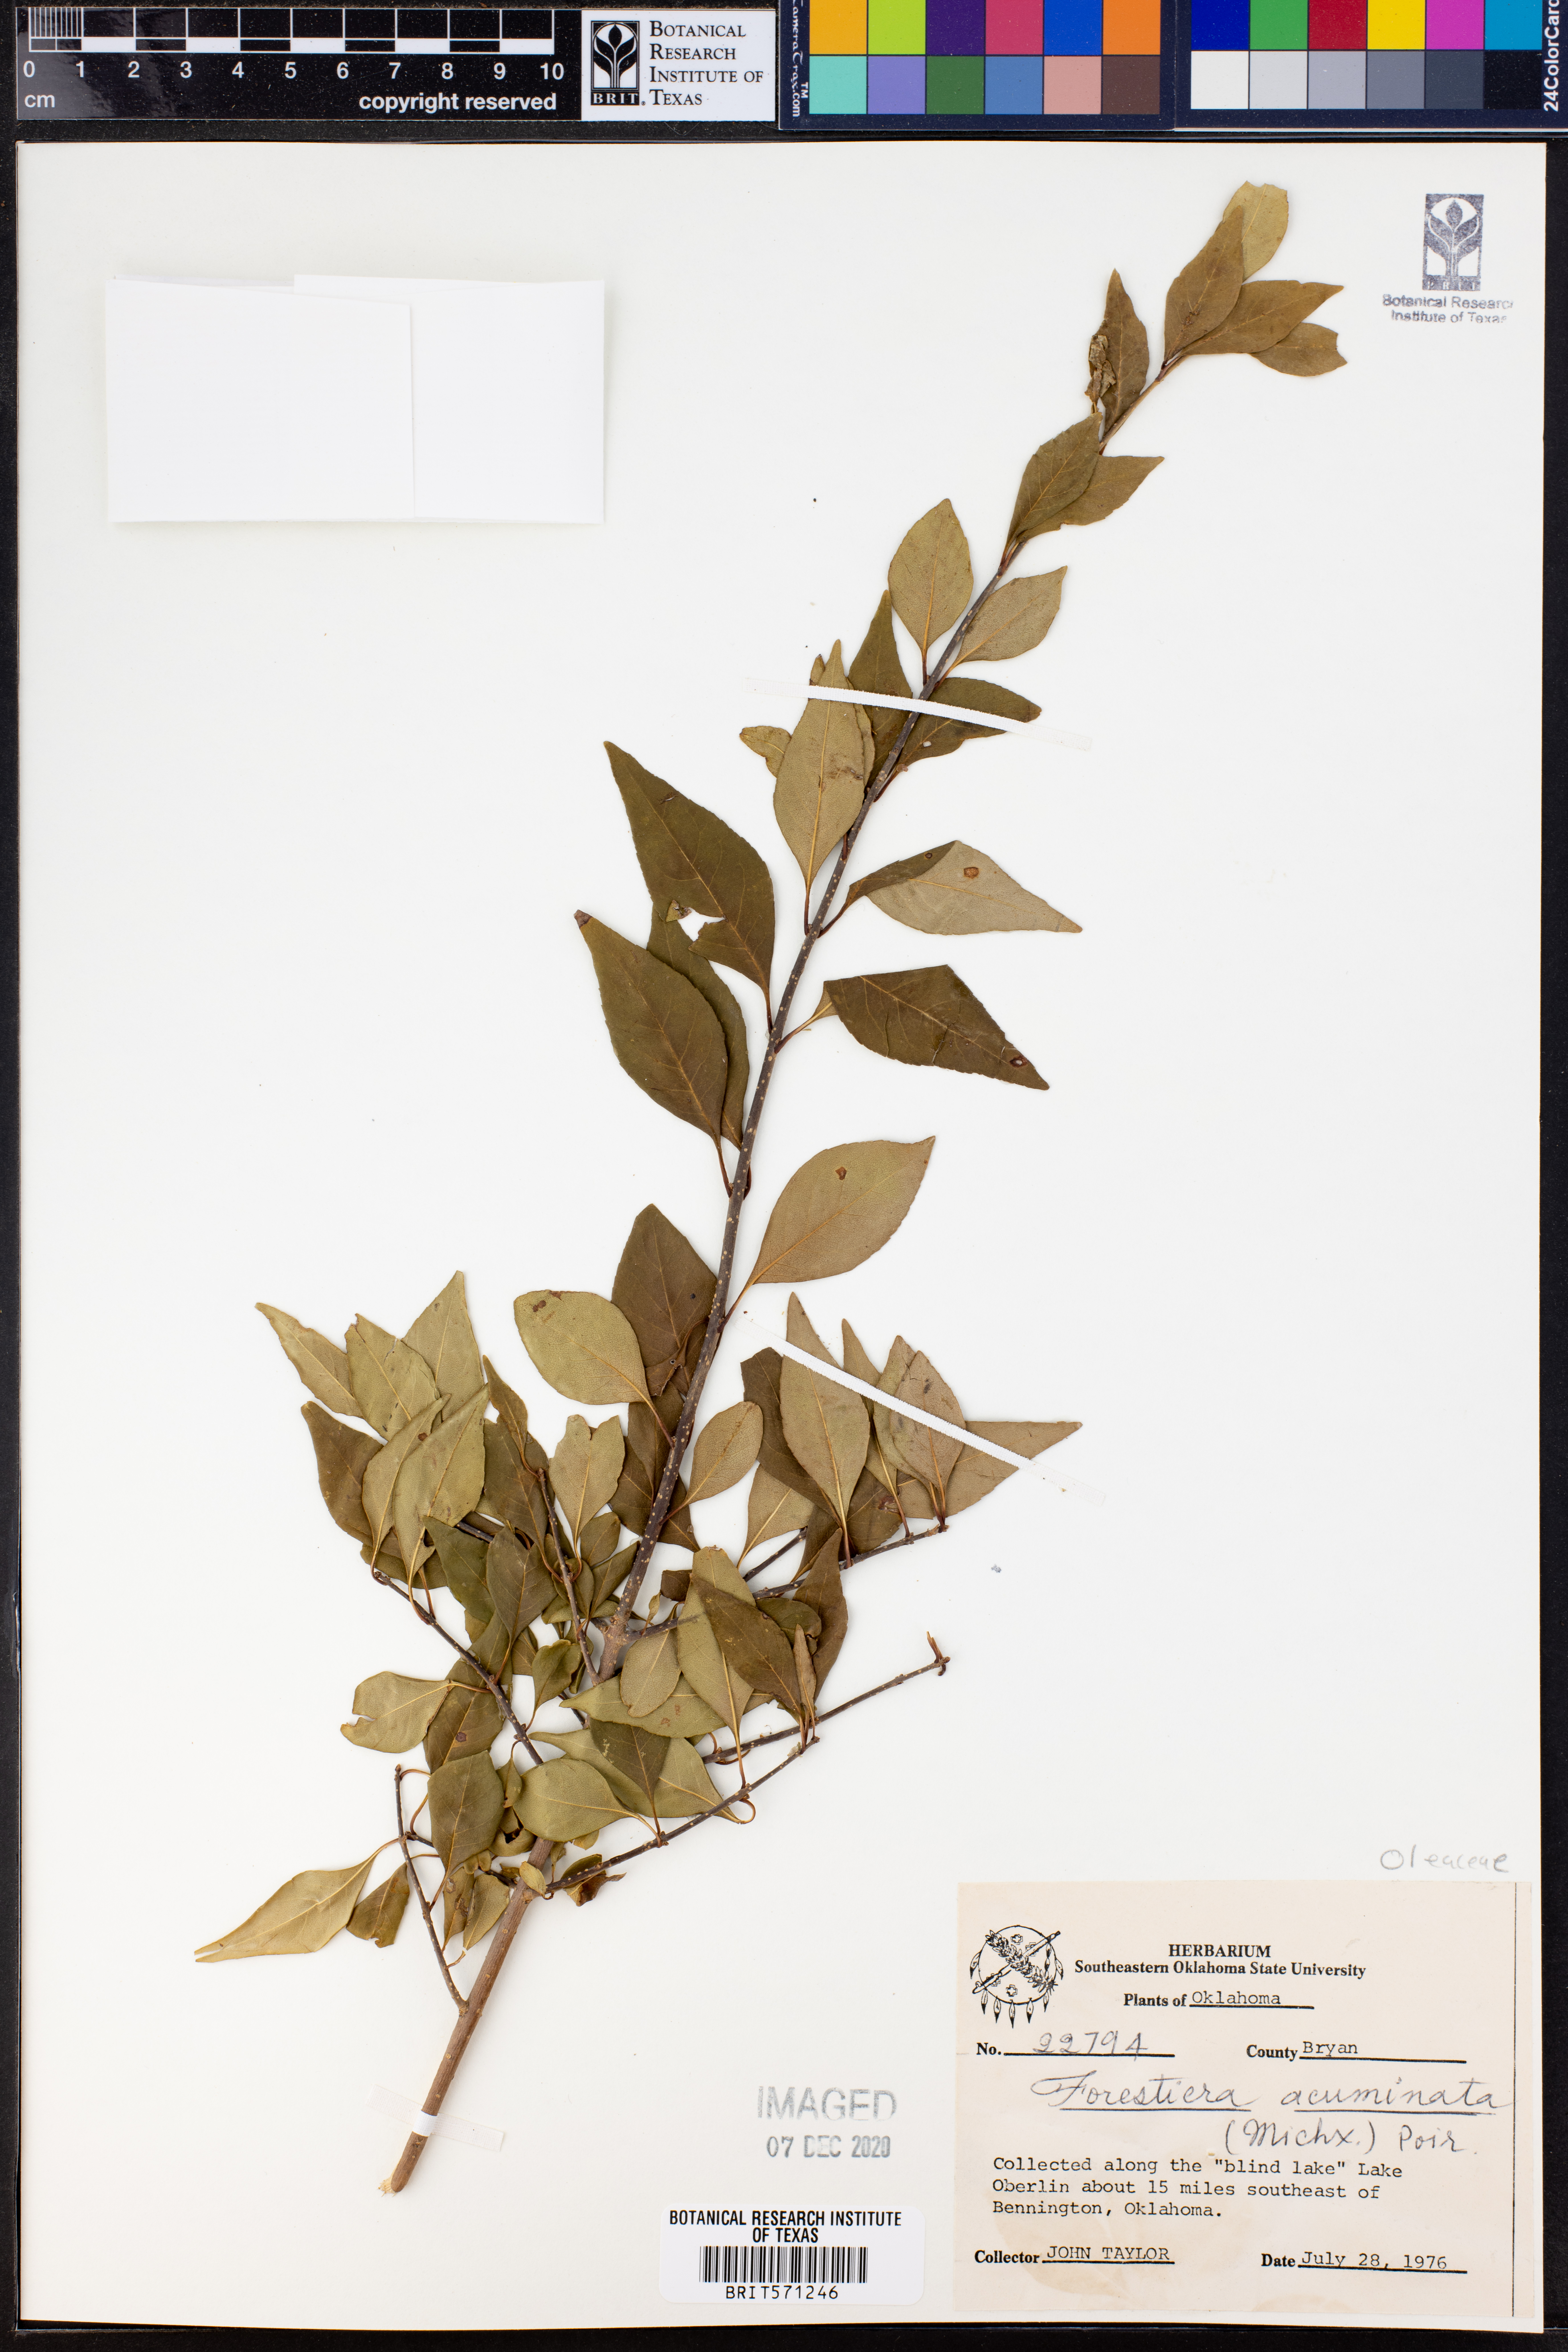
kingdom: Plantae
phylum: Tracheophyta
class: Magnoliopsida
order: Lamiales
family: Oleaceae
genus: Forestiera
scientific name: Forestiera acuminata
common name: Swamp-privet
